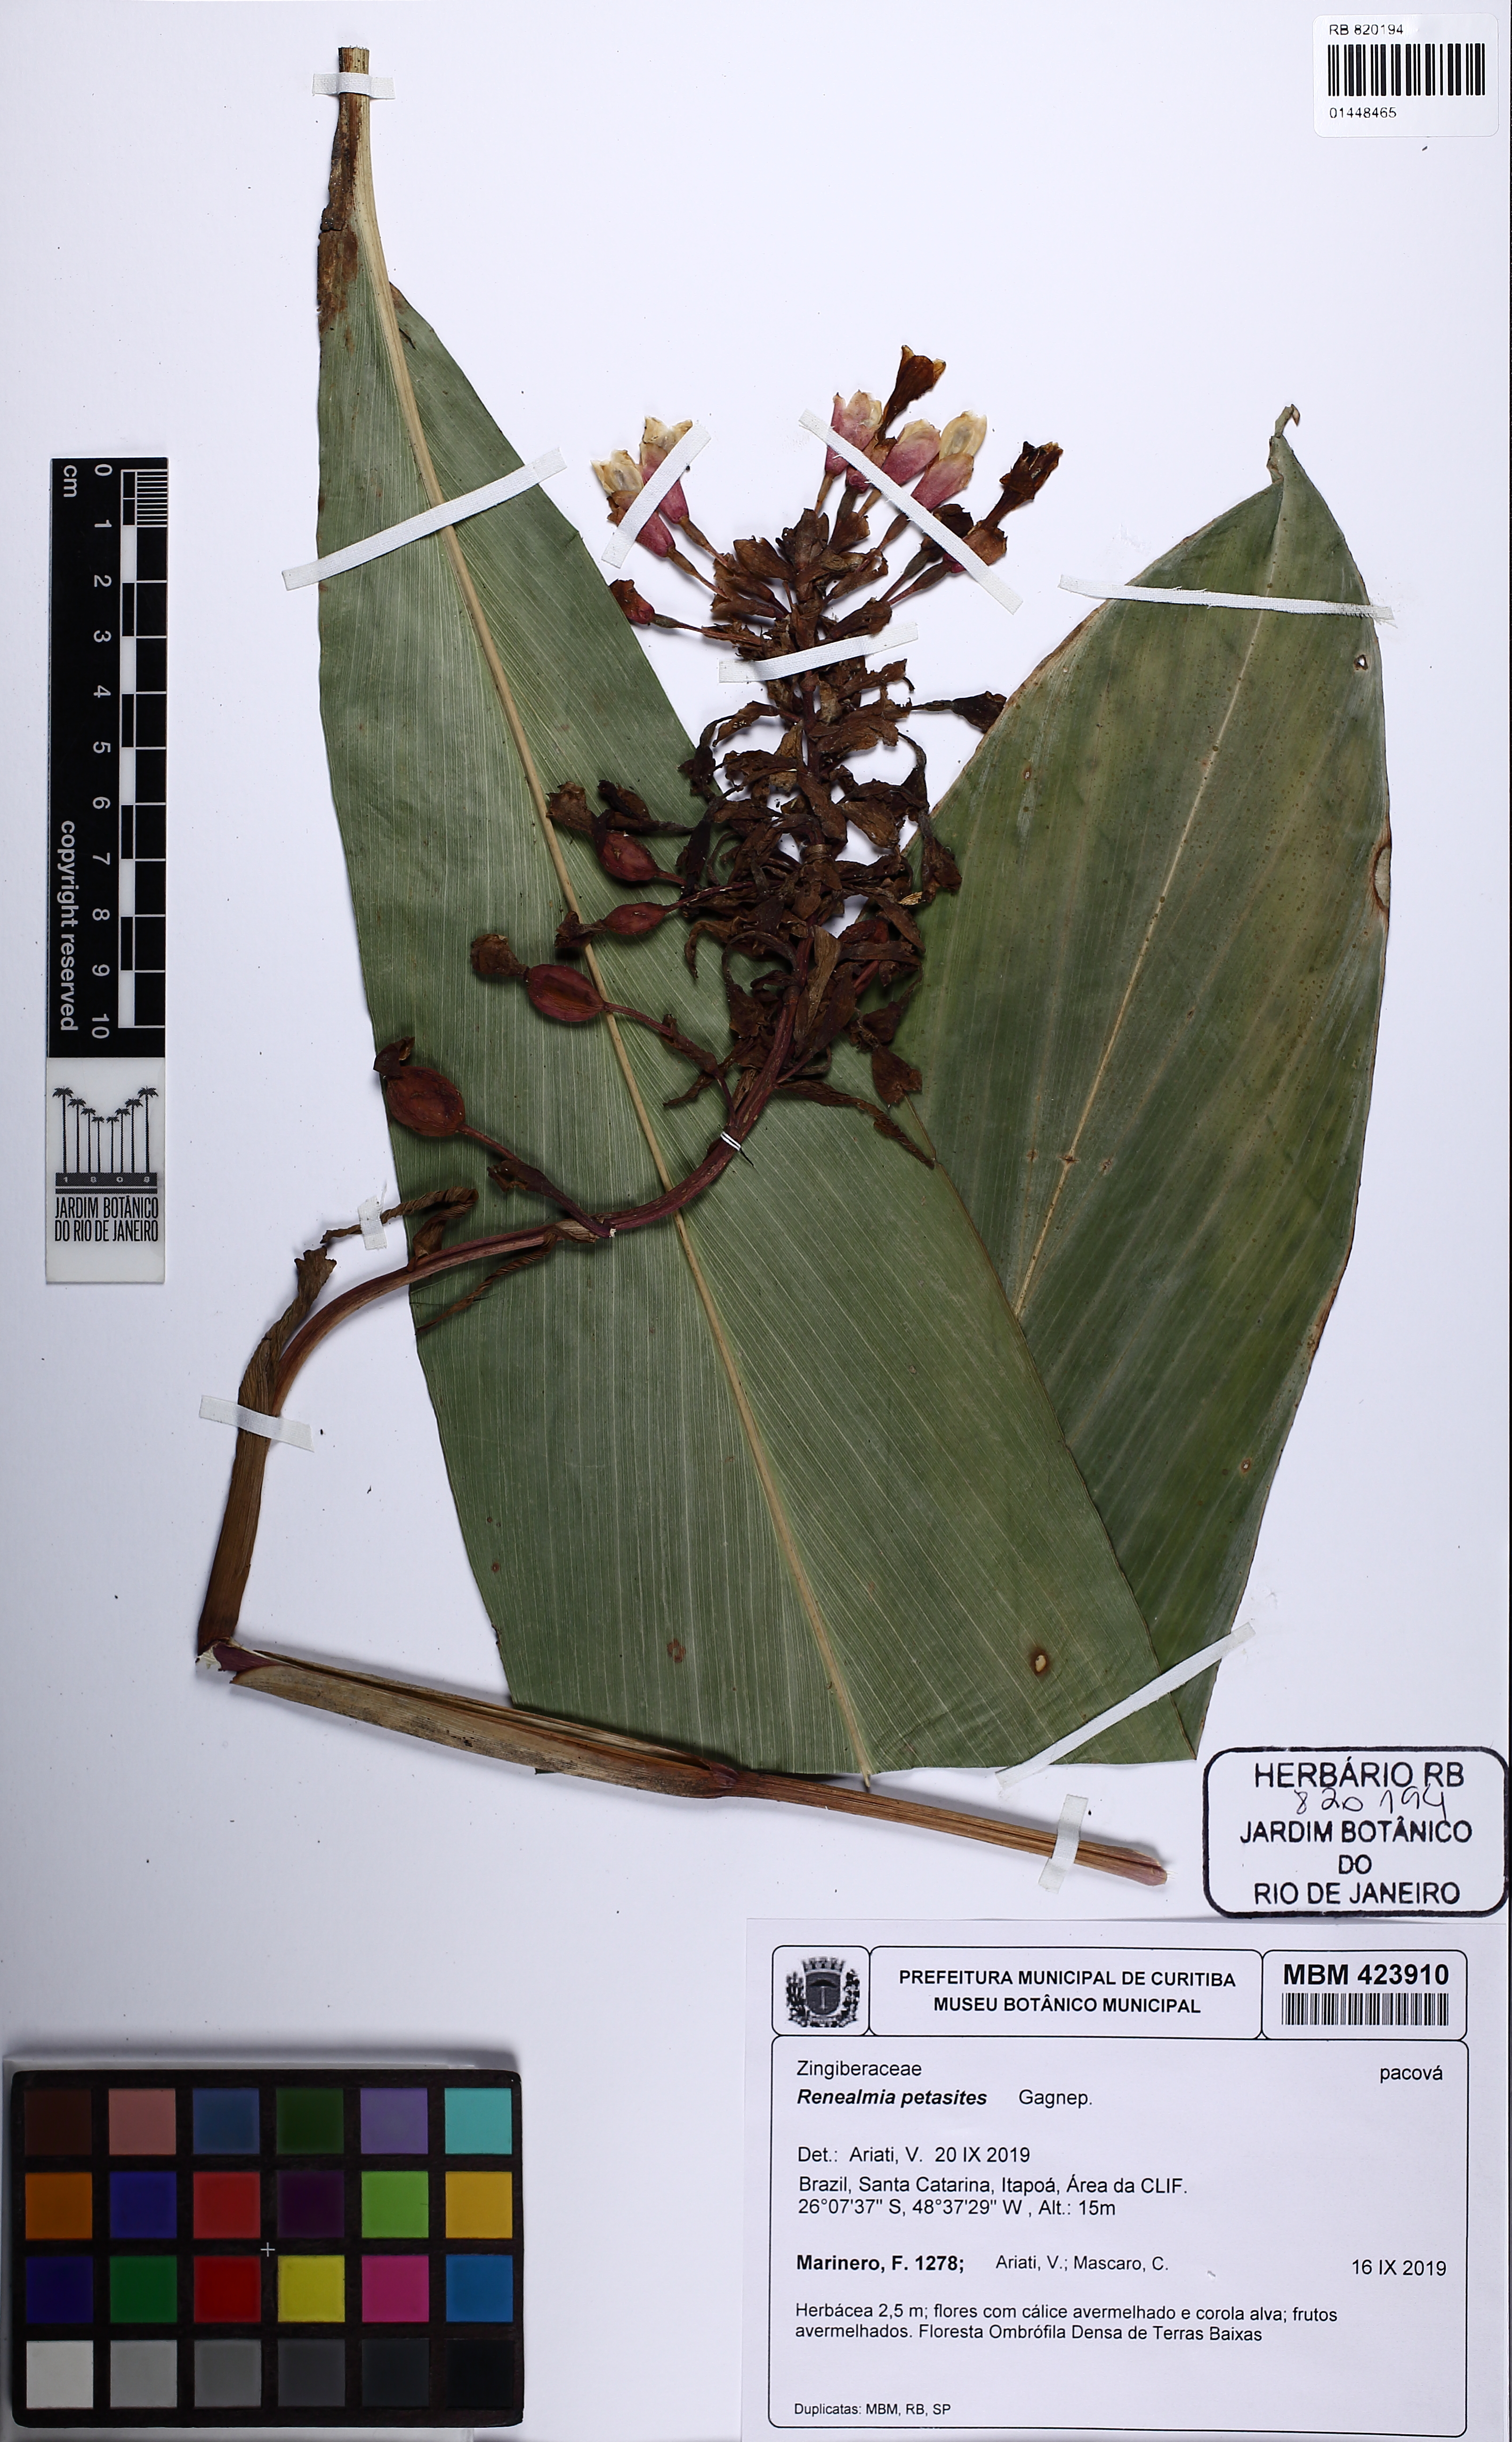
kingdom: Plantae
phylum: Tracheophyta
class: Liliopsida
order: Zingiberales
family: Zingiberaceae
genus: Renealmia
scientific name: Renealmia chrysotricha
